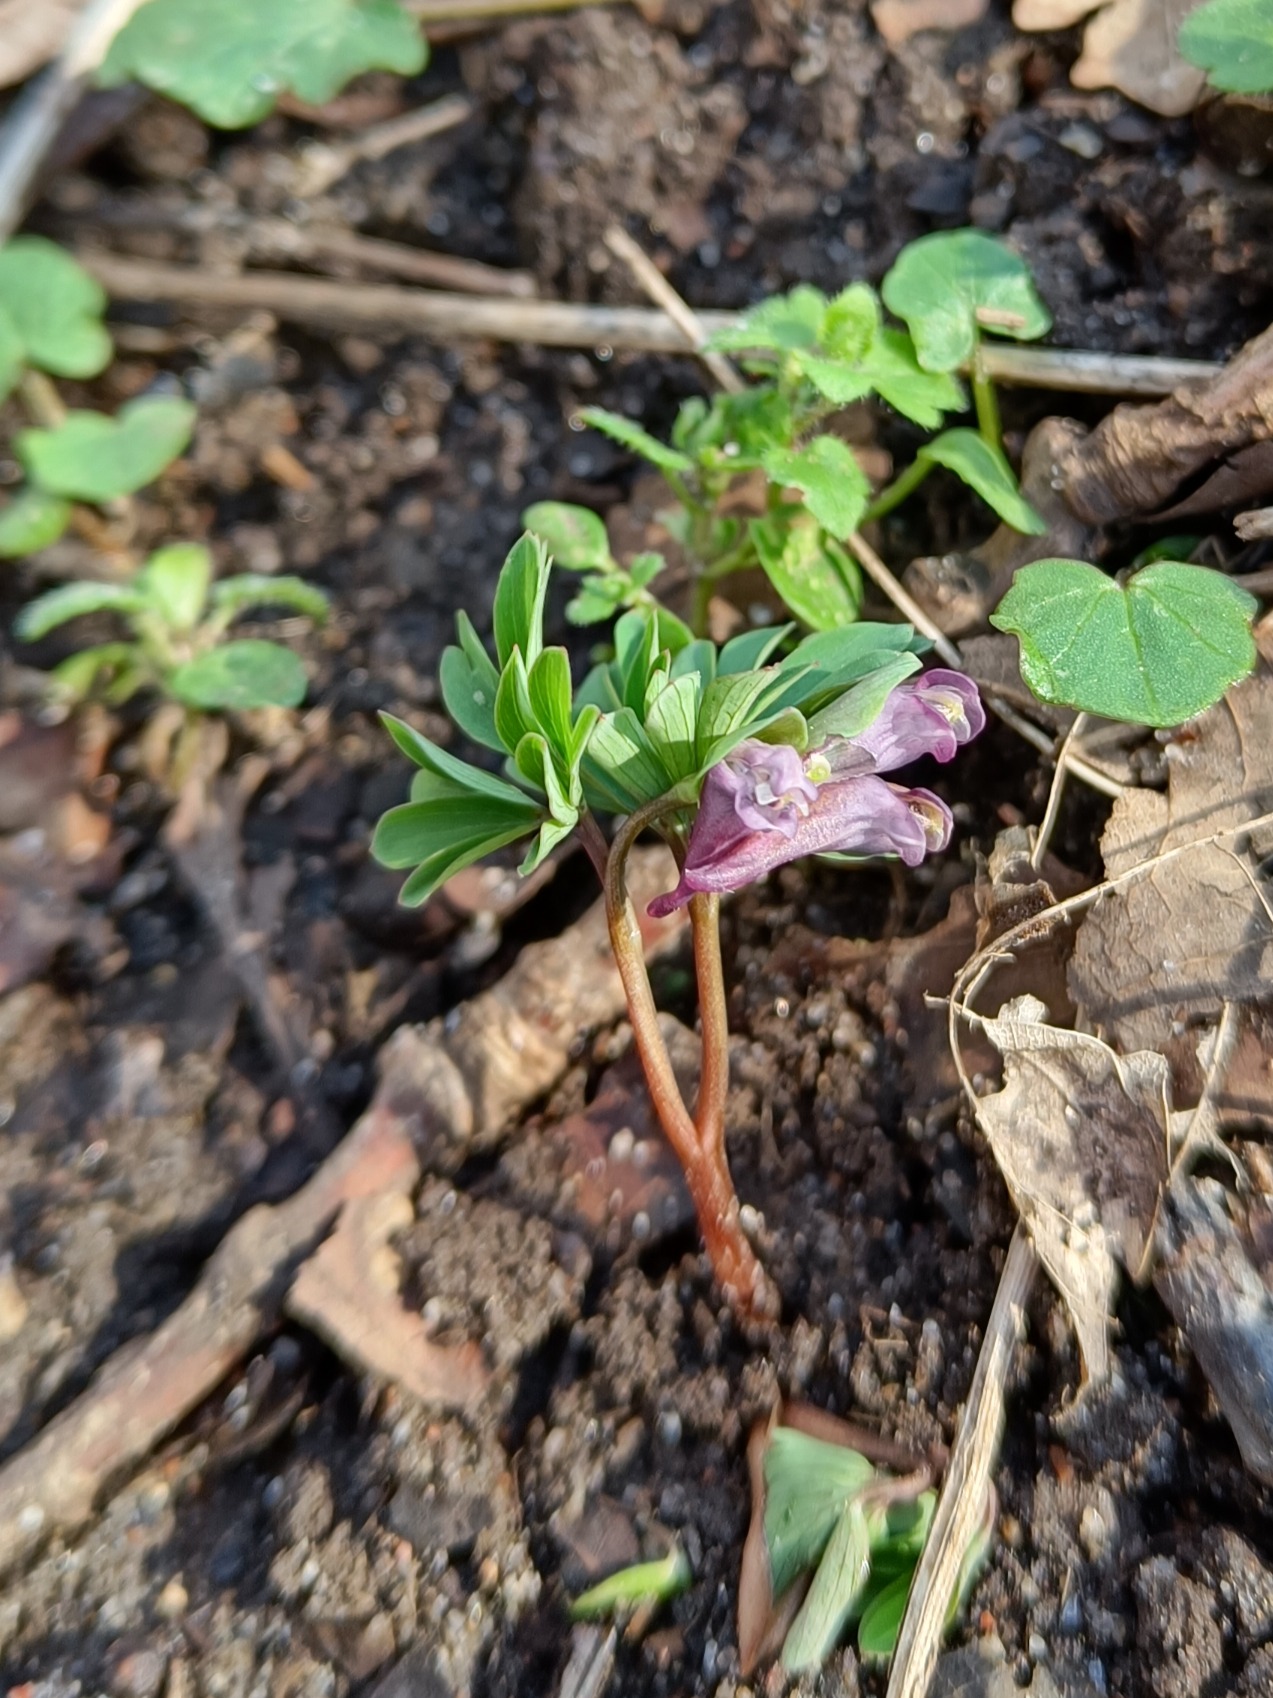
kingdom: Plantae
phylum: Tracheophyta
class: Magnoliopsida
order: Ranunculales
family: Papaveraceae
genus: Corydalis
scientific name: Corydalis intermedia
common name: Liden lærkespore
